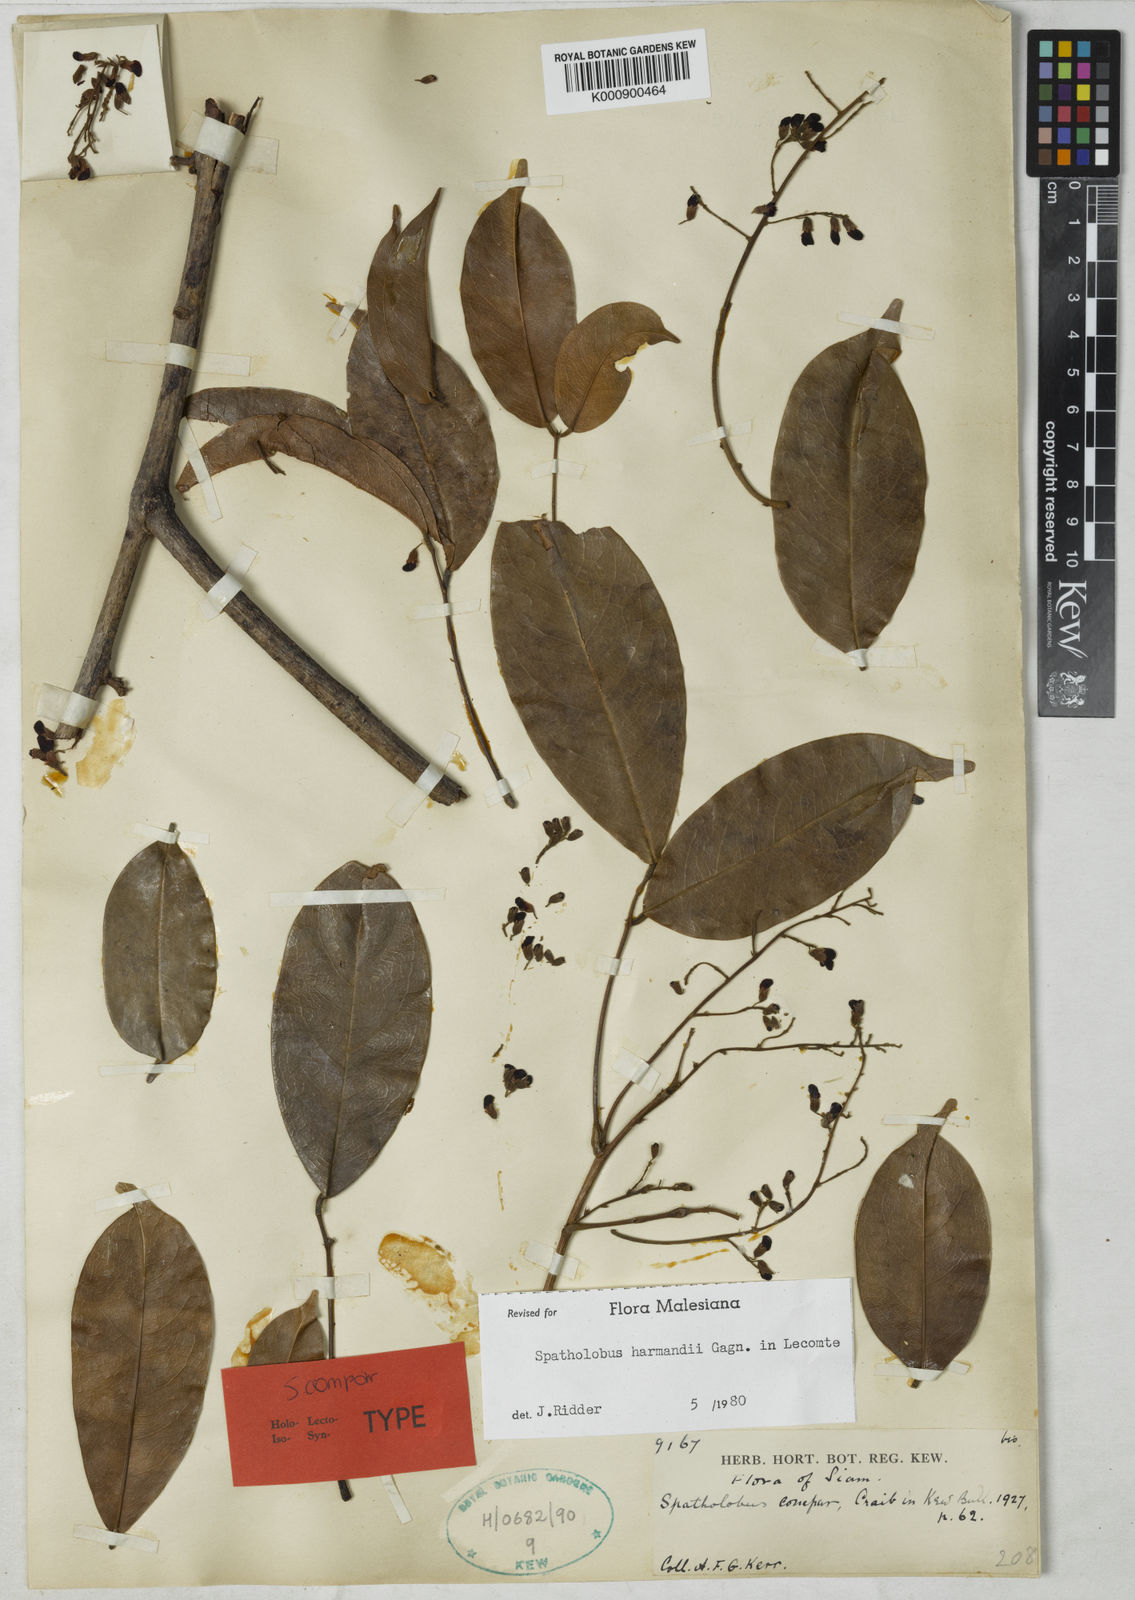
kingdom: Plantae
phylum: Tracheophyta
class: Magnoliopsida
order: Fabales
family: Fabaceae
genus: Spatholobus
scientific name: Spatholobus harmandii
